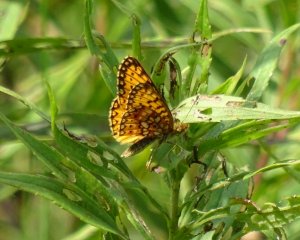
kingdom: Animalia
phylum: Arthropoda
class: Insecta
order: Lepidoptera
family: Nymphalidae
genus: Boloria
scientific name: Boloria selene
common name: Silver-bordered Fritillary
